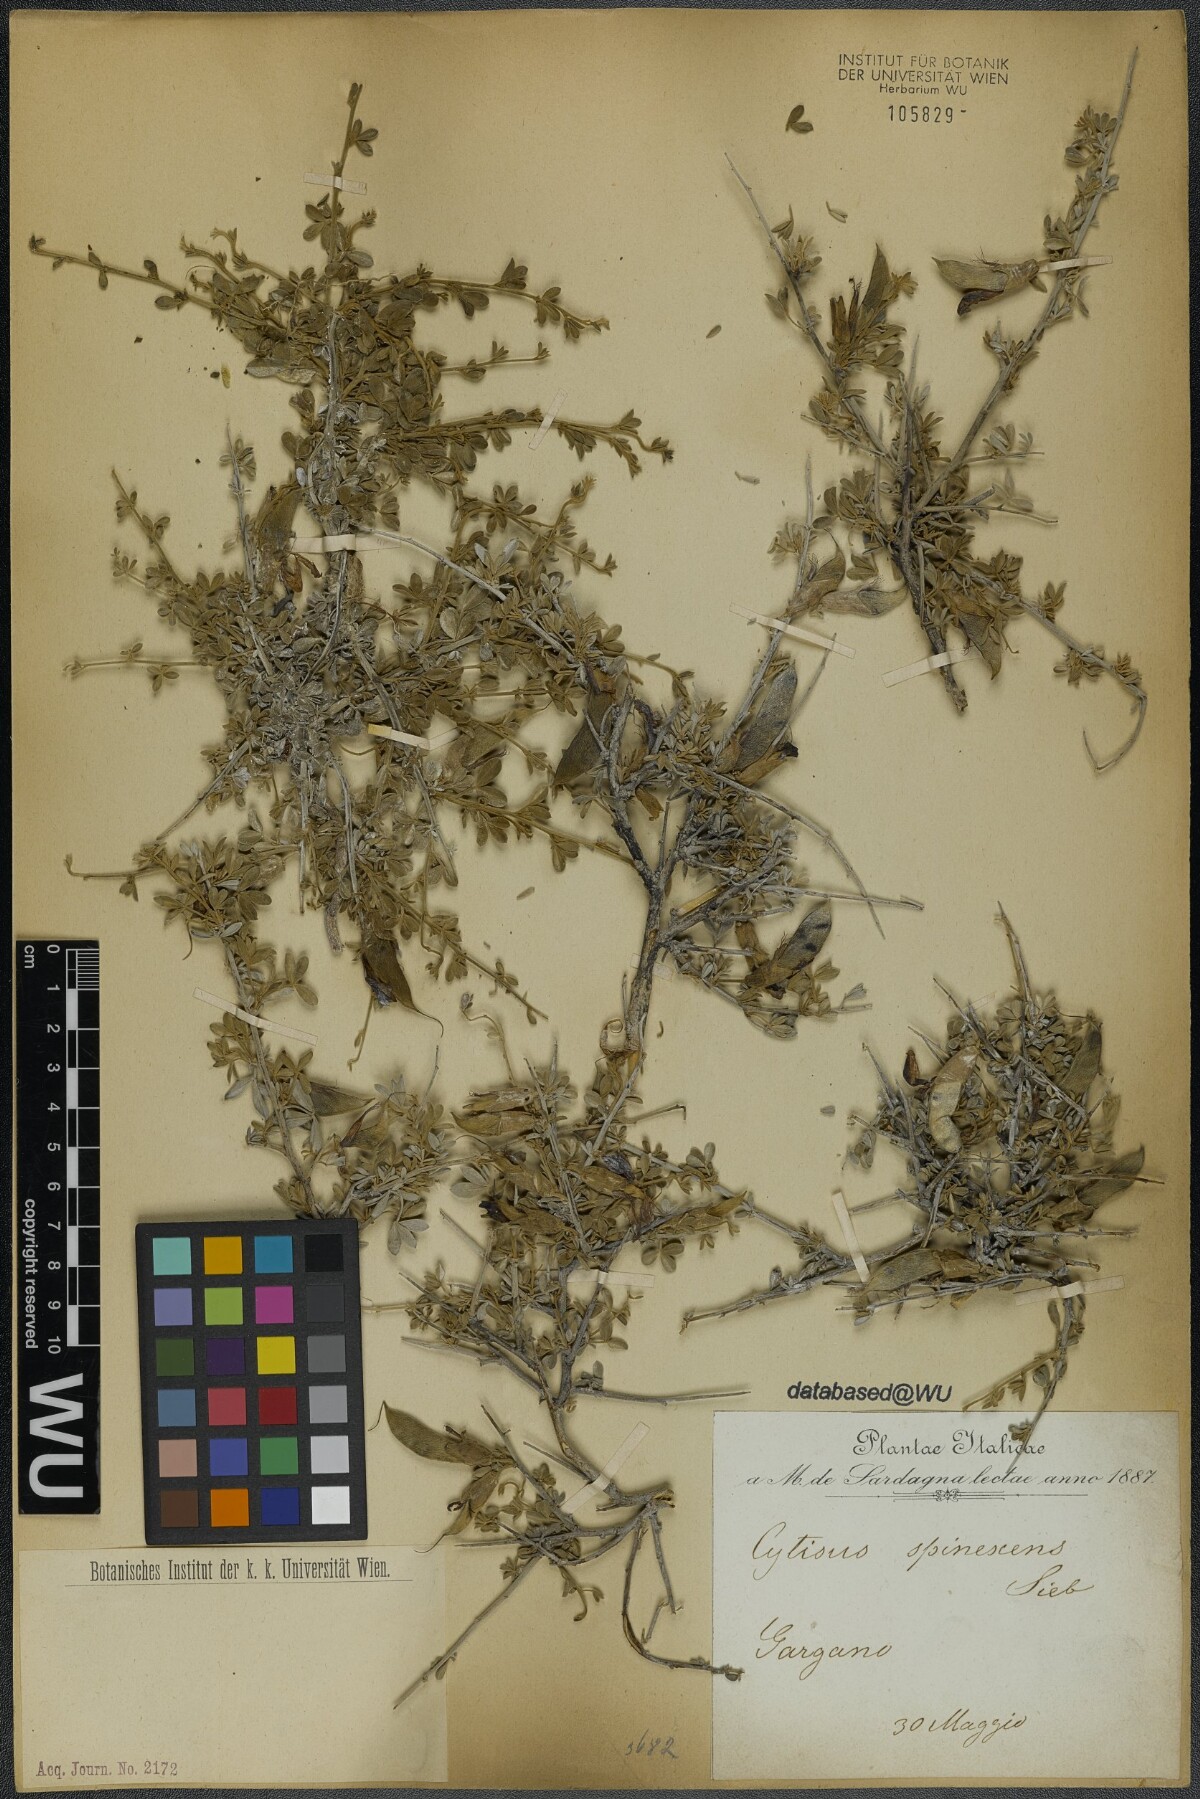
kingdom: Plantae
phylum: Tracheophyta
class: Magnoliopsida
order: Fabales
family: Fabaceae
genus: Chamaecytisus
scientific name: Chamaecytisus spinescens
